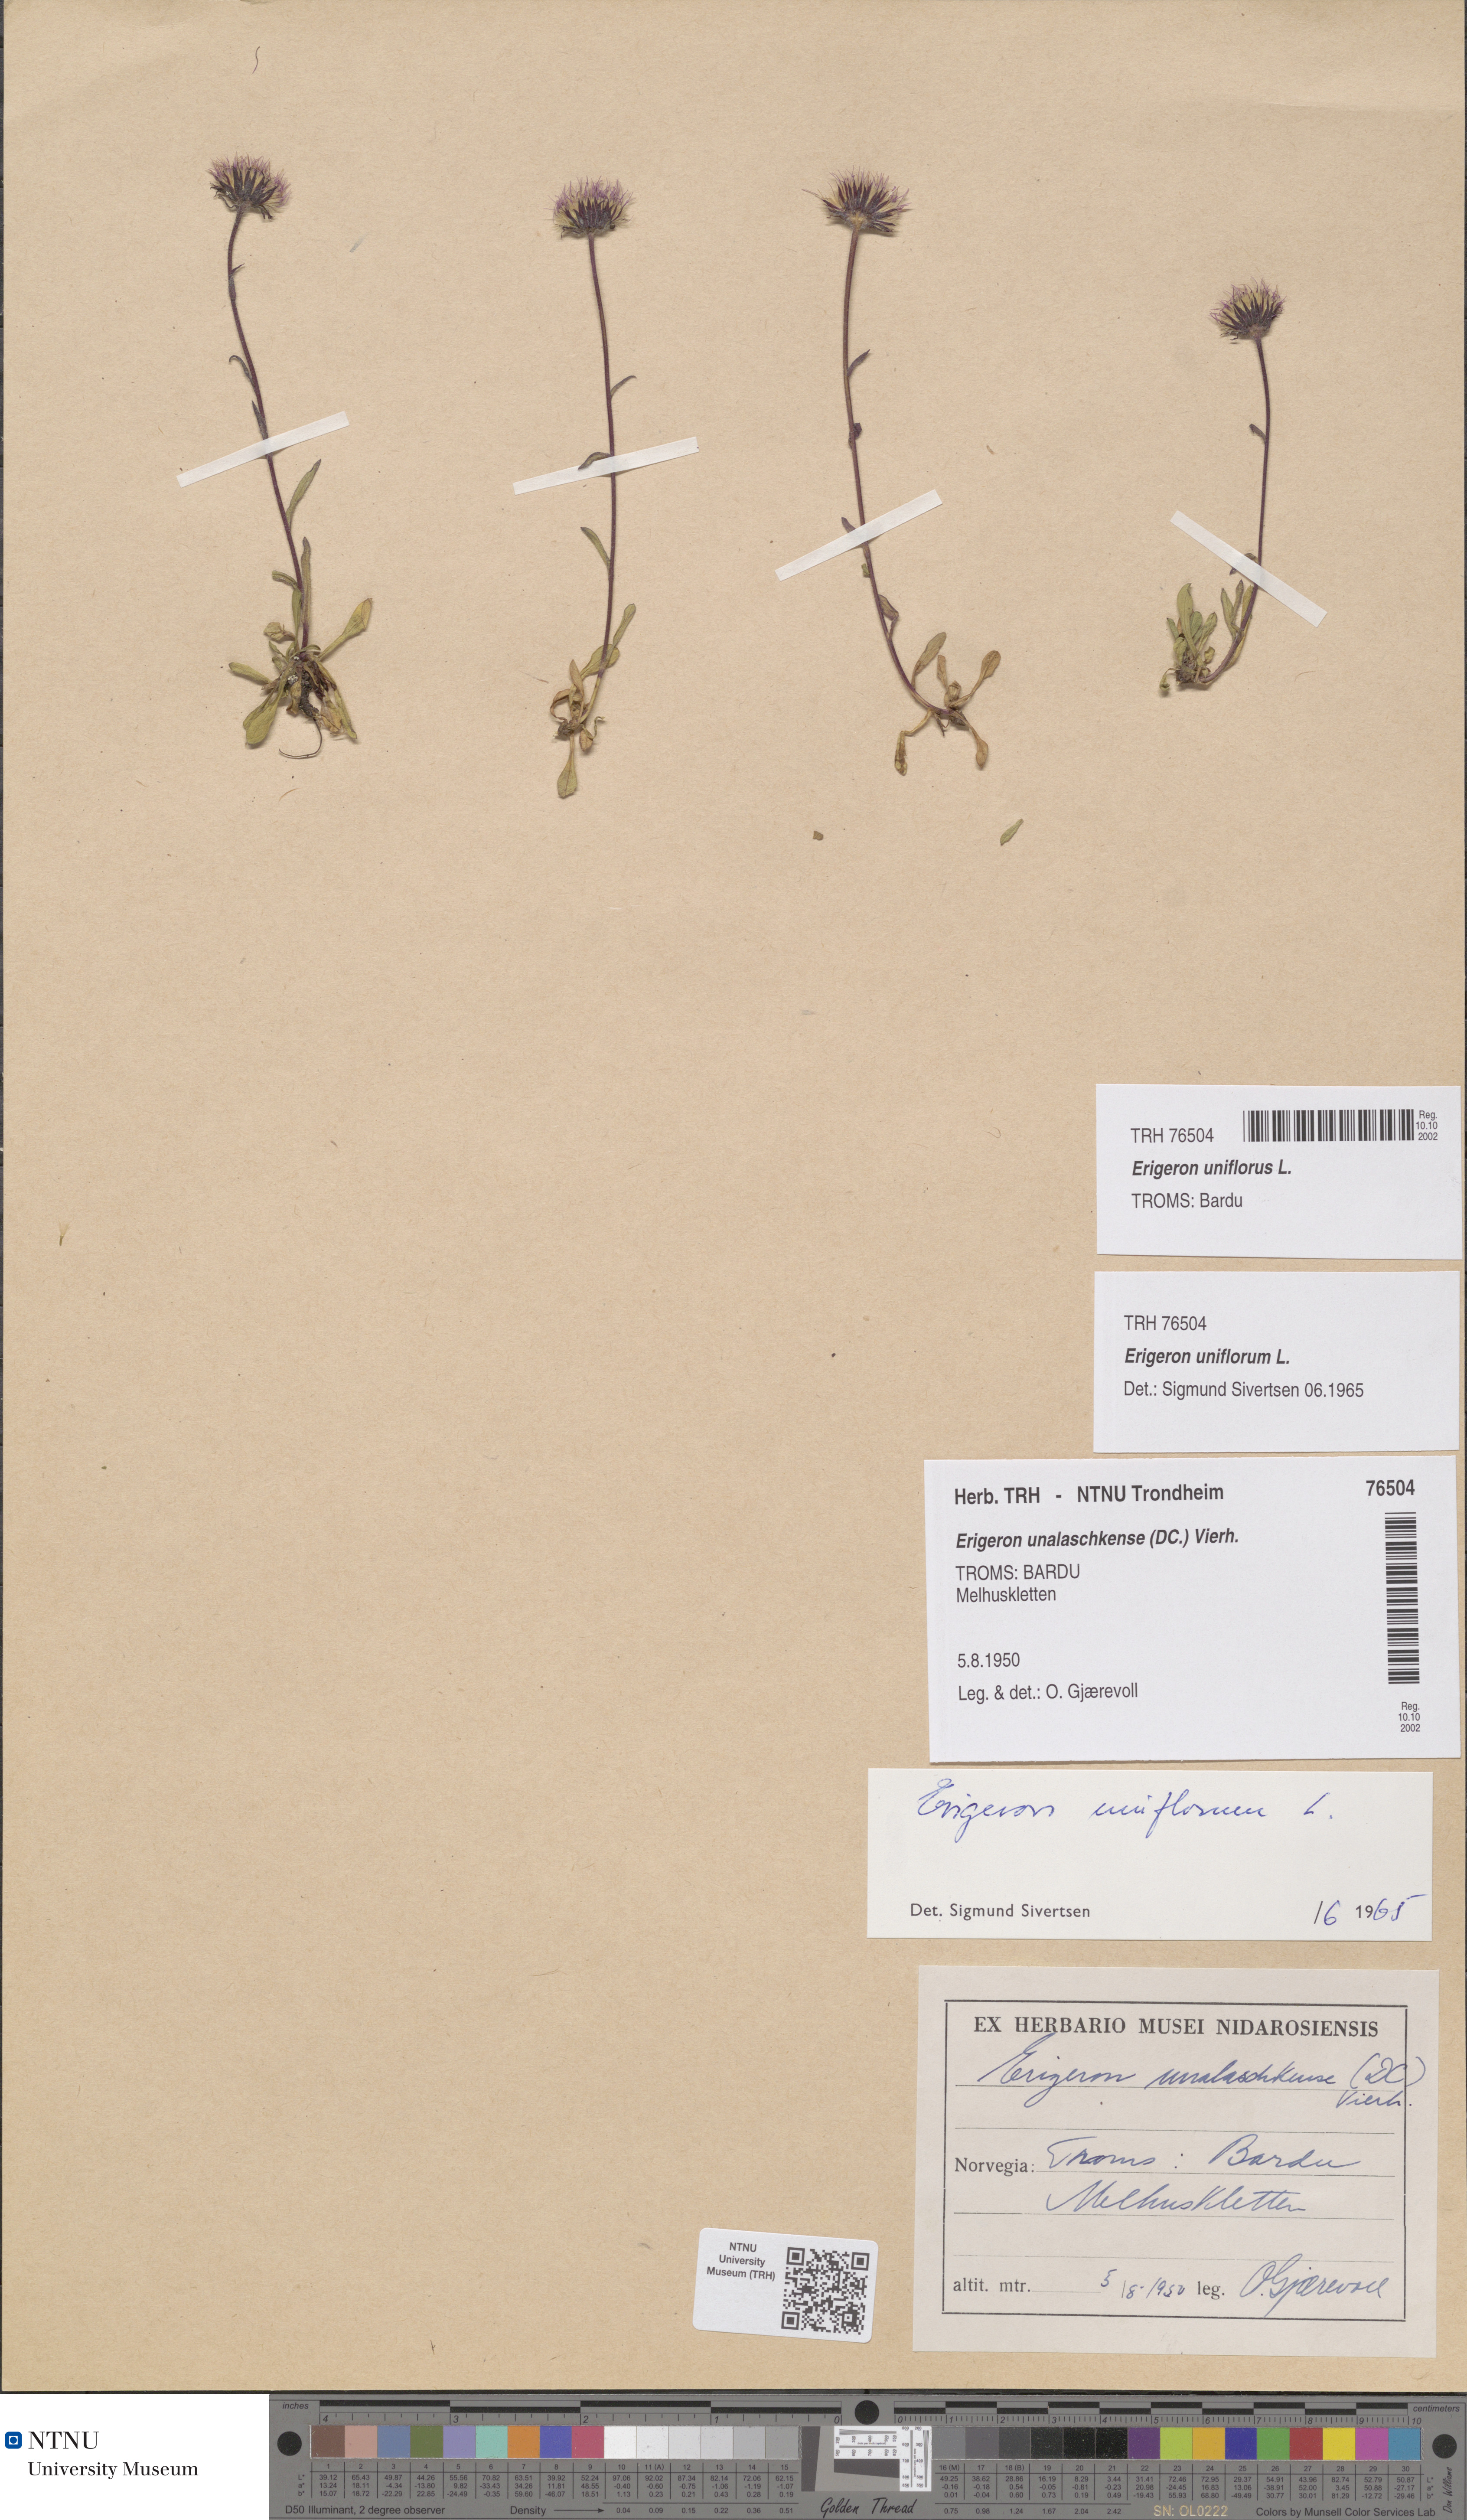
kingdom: Plantae
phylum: Tracheophyta
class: Magnoliopsida
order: Asterales
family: Asteraceae
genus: Erigeron
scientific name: Erigeron uniflorus
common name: Northern daisy
